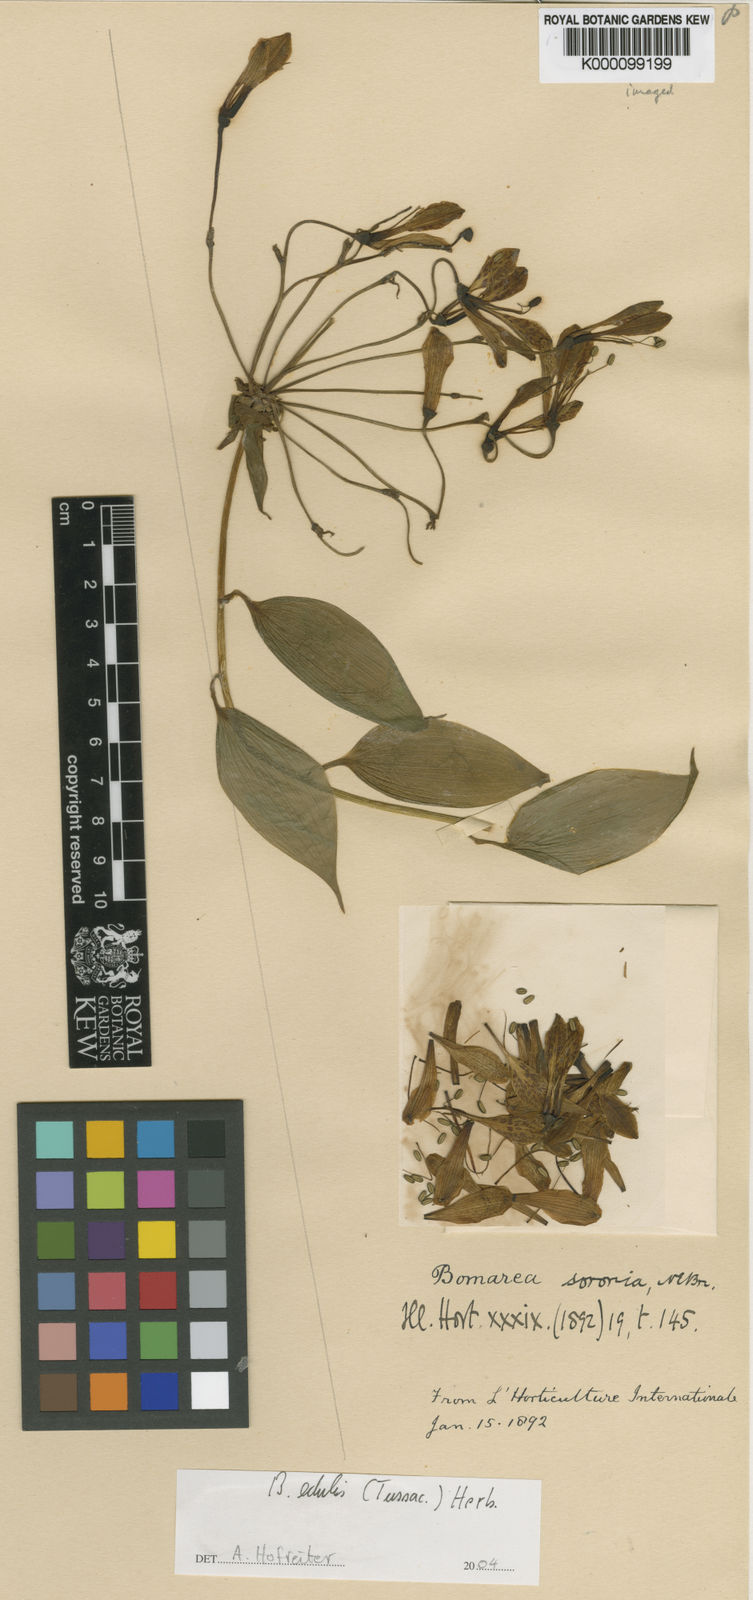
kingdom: Plantae
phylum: Tracheophyta
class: Liliopsida
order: Liliales
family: Alstroemeriaceae
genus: Bomarea
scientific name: Bomarea edulis
